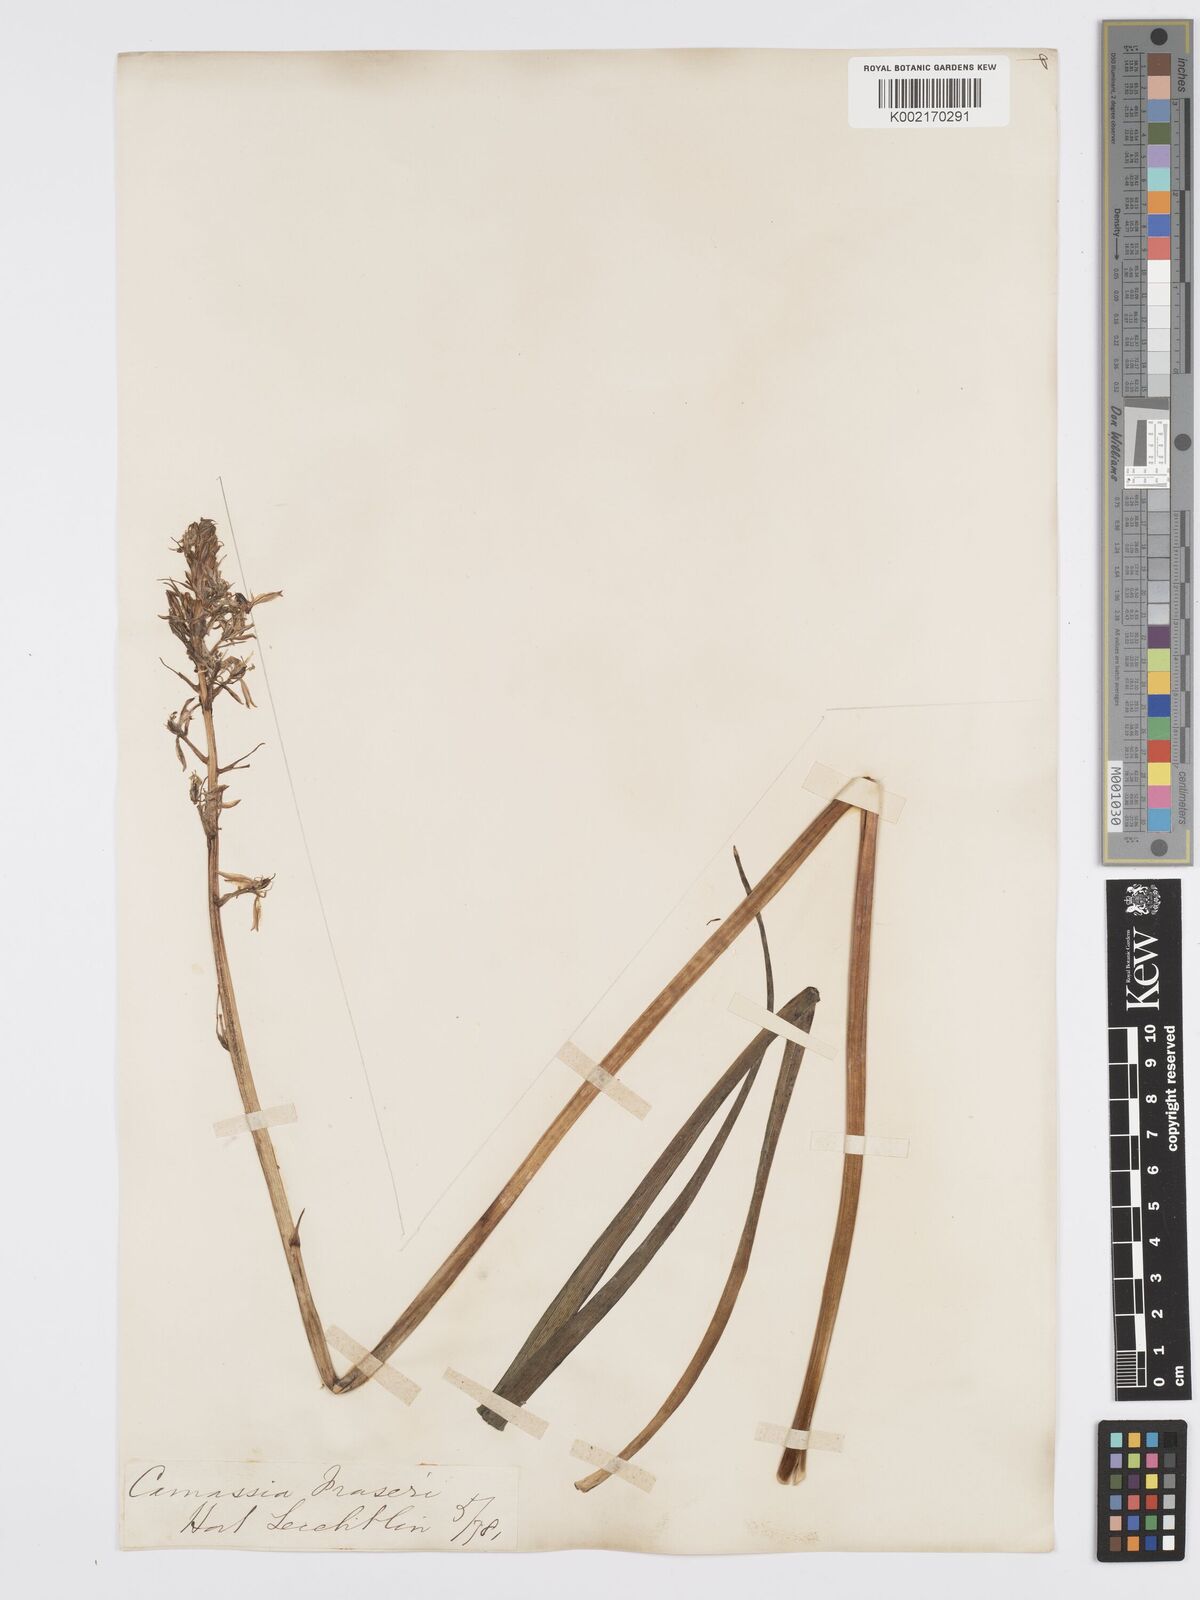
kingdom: Plantae
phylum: Tracheophyta
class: Liliopsida
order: Asparagales
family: Asparagaceae
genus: Camassia
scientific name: Camassia scilloides
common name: Wild hyacinth
